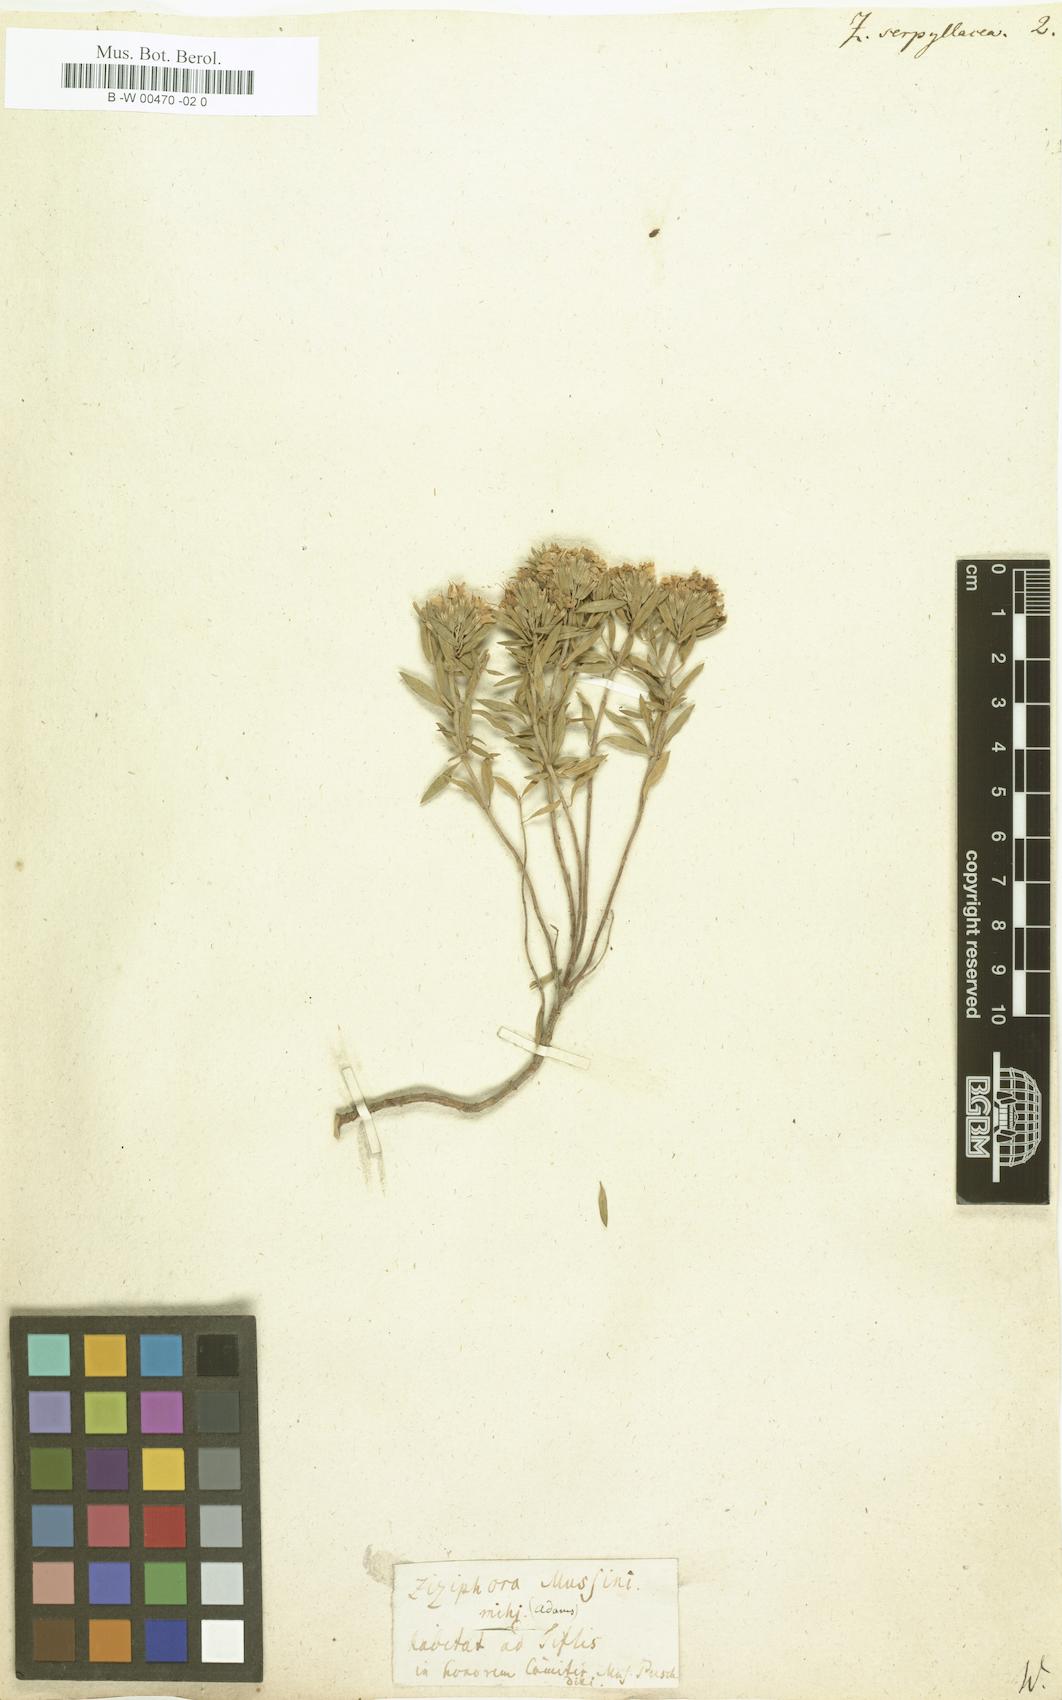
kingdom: Plantae
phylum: Tracheophyta
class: Magnoliopsida
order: Lamiales
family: Lamiaceae
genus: Ziziphora
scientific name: Ziziphora clinopodioides
